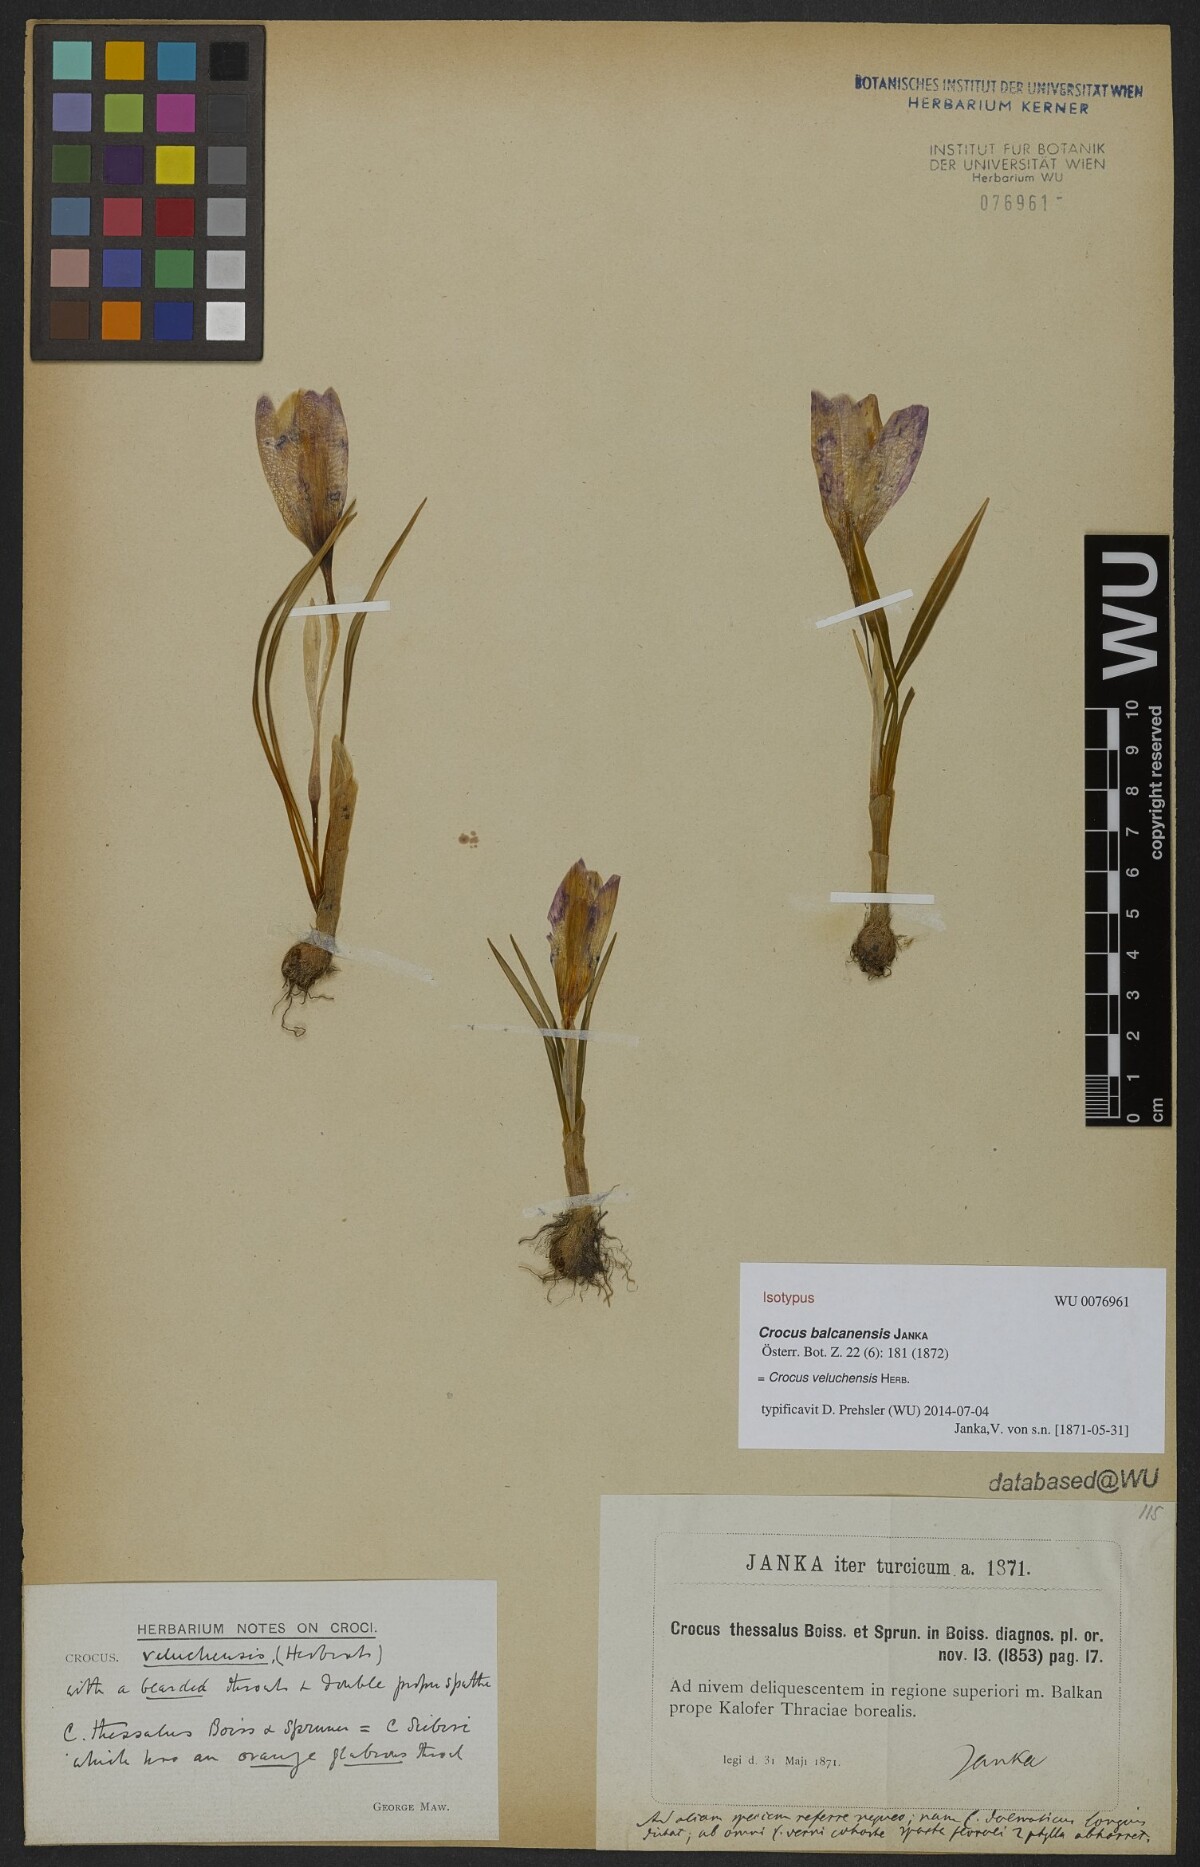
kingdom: Plantae
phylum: Tracheophyta
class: Liliopsida
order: Asparagales
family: Iridaceae
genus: Crocus
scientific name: Crocus veluchensis
